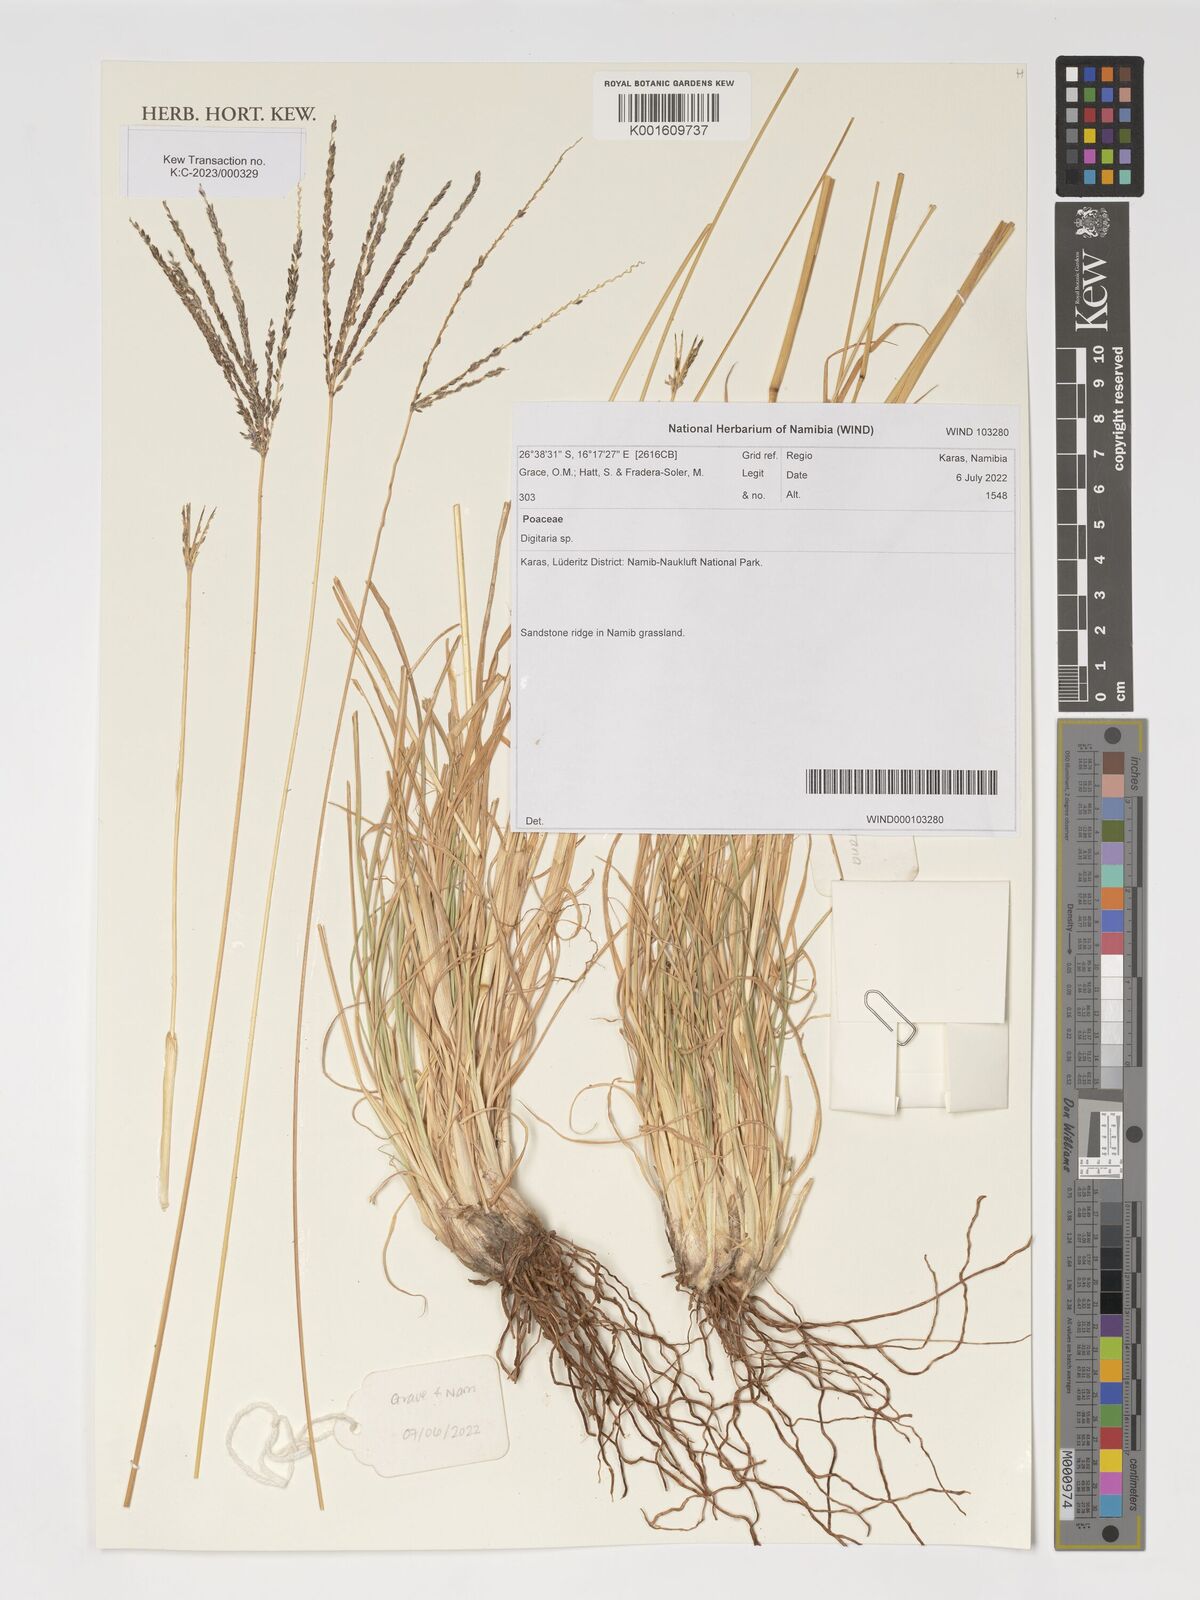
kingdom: Plantae
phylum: Tracheophyta
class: Liliopsida
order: Poales
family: Poaceae
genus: Digitaria
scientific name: Digitaria
